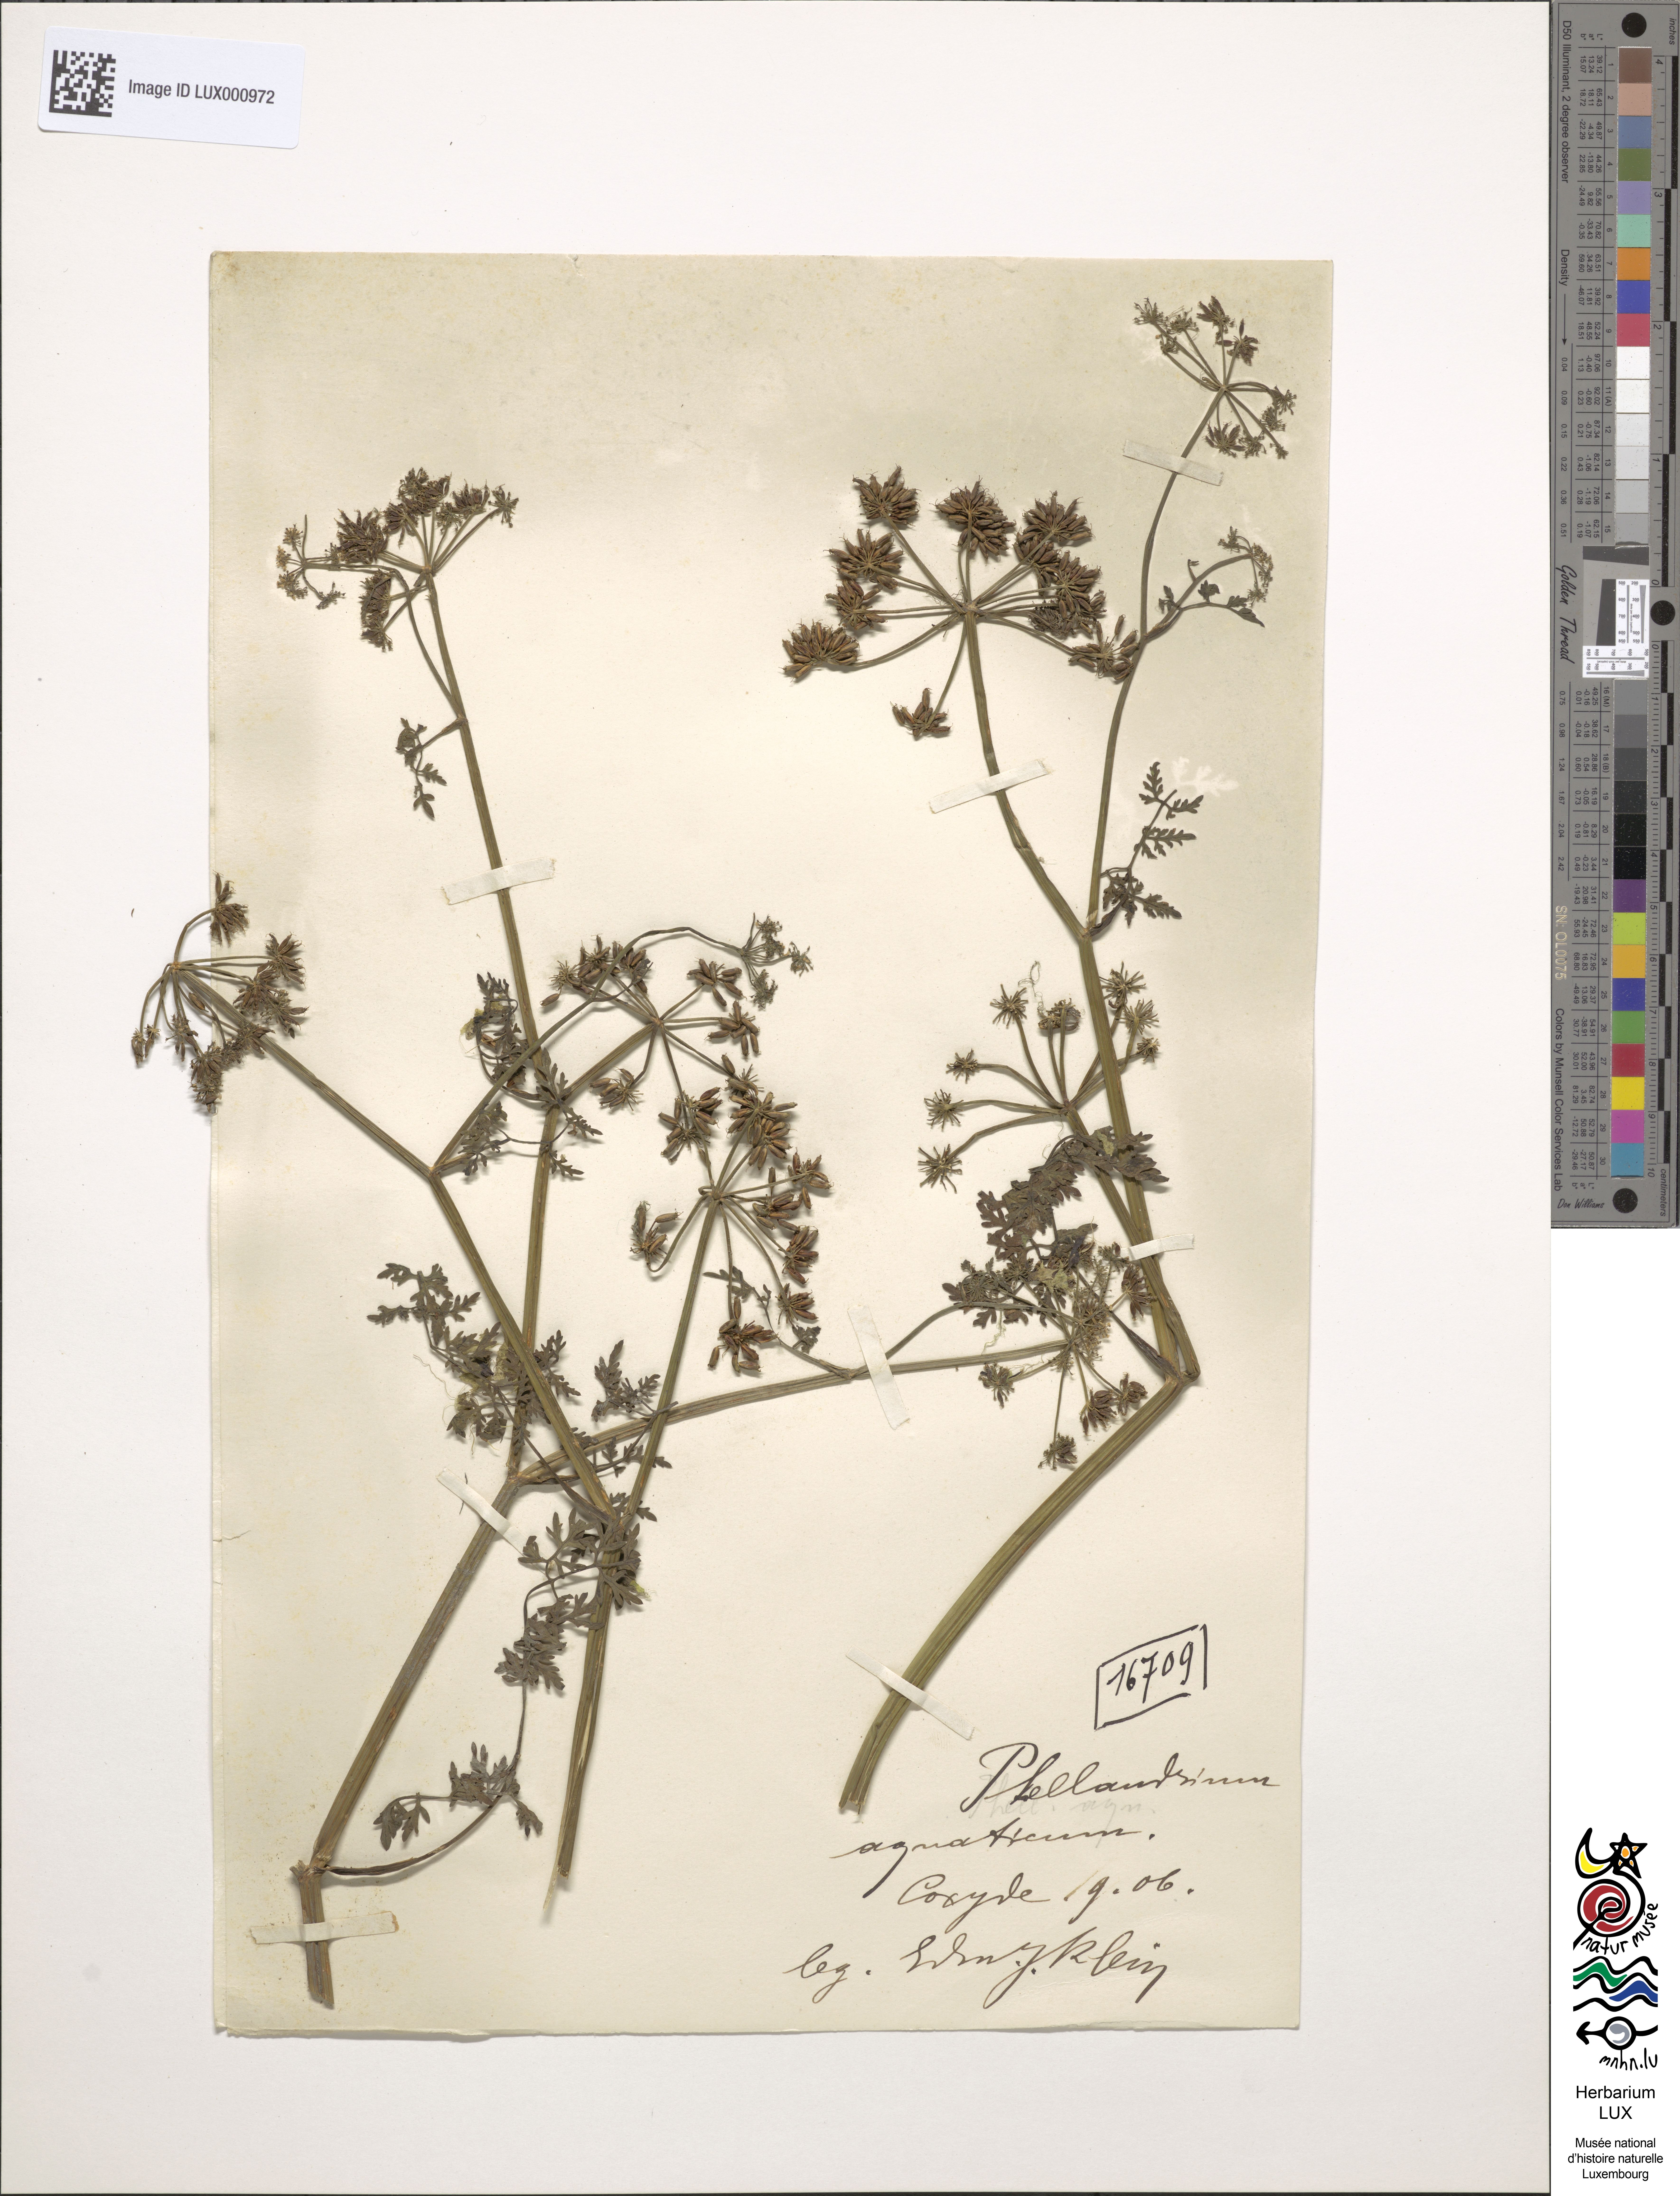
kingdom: Plantae
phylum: Tracheophyta
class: Magnoliopsida
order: Apiales
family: Apiaceae
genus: Oenanthe
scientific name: Oenanthe aquatica
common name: Fine-leaved water-dropwort
